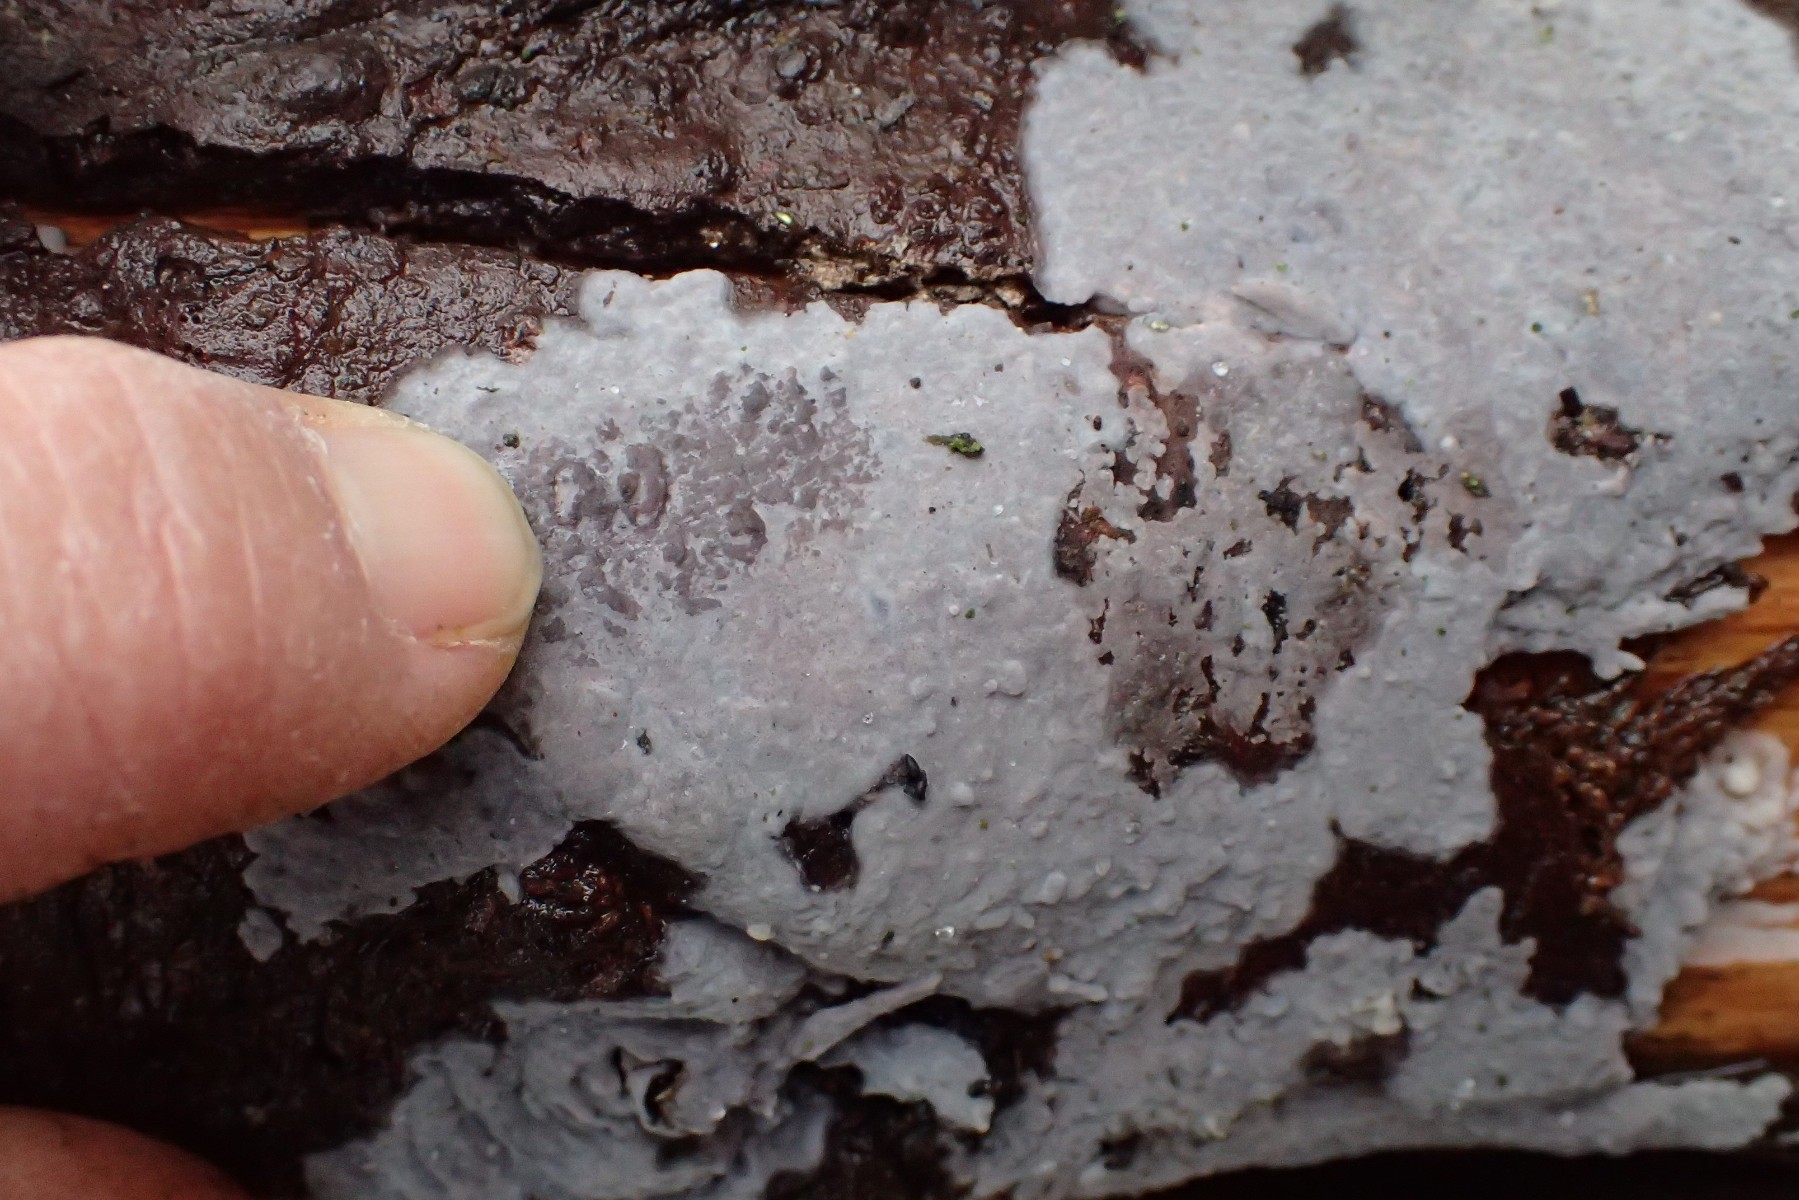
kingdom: Fungi
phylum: Basidiomycota
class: Agaricomycetes
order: Sebacinales
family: Sebacinaceae
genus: Sebacina
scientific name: Sebacina grisea
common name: blågrå bævrehinde
